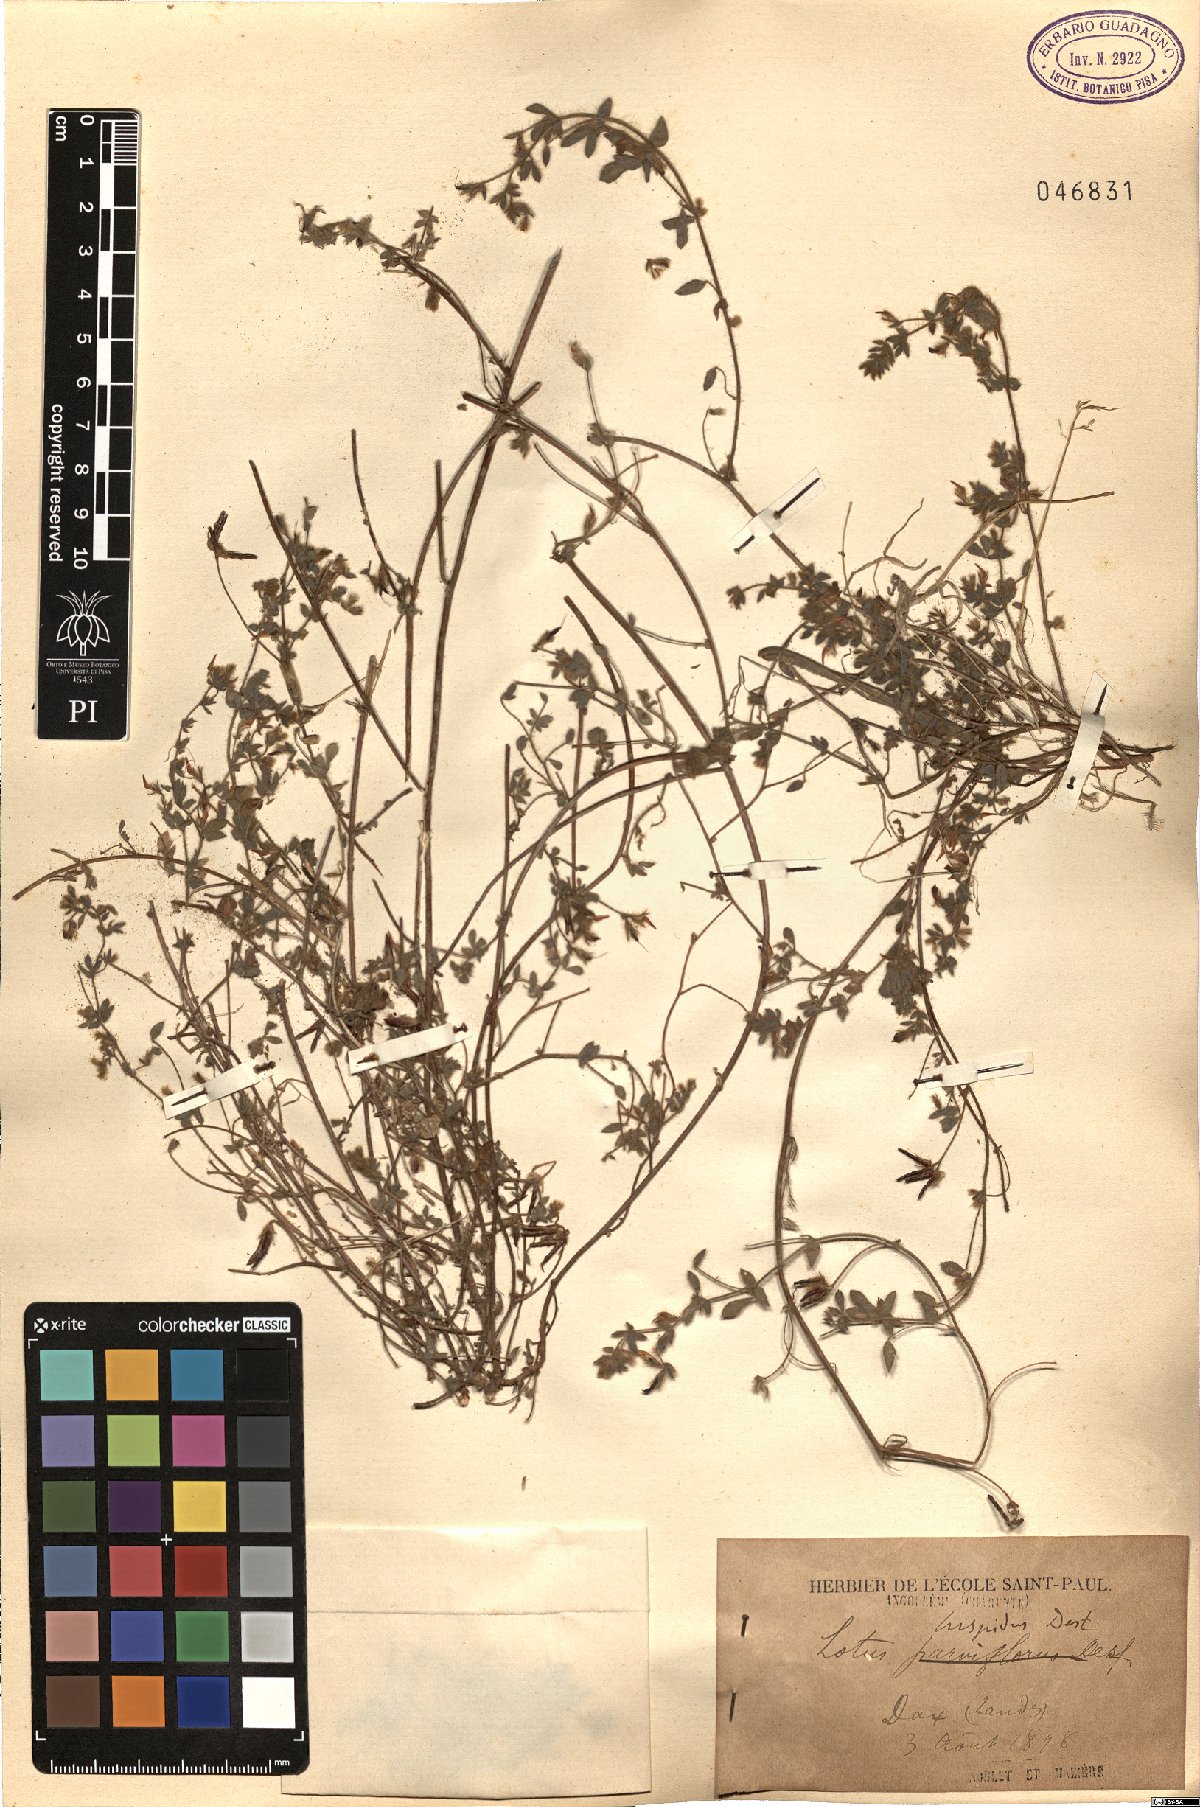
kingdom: Plantae
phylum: Tracheophyta
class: Magnoliopsida
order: Fabales
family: Fabaceae
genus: Lotus
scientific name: Lotus parviflorus
